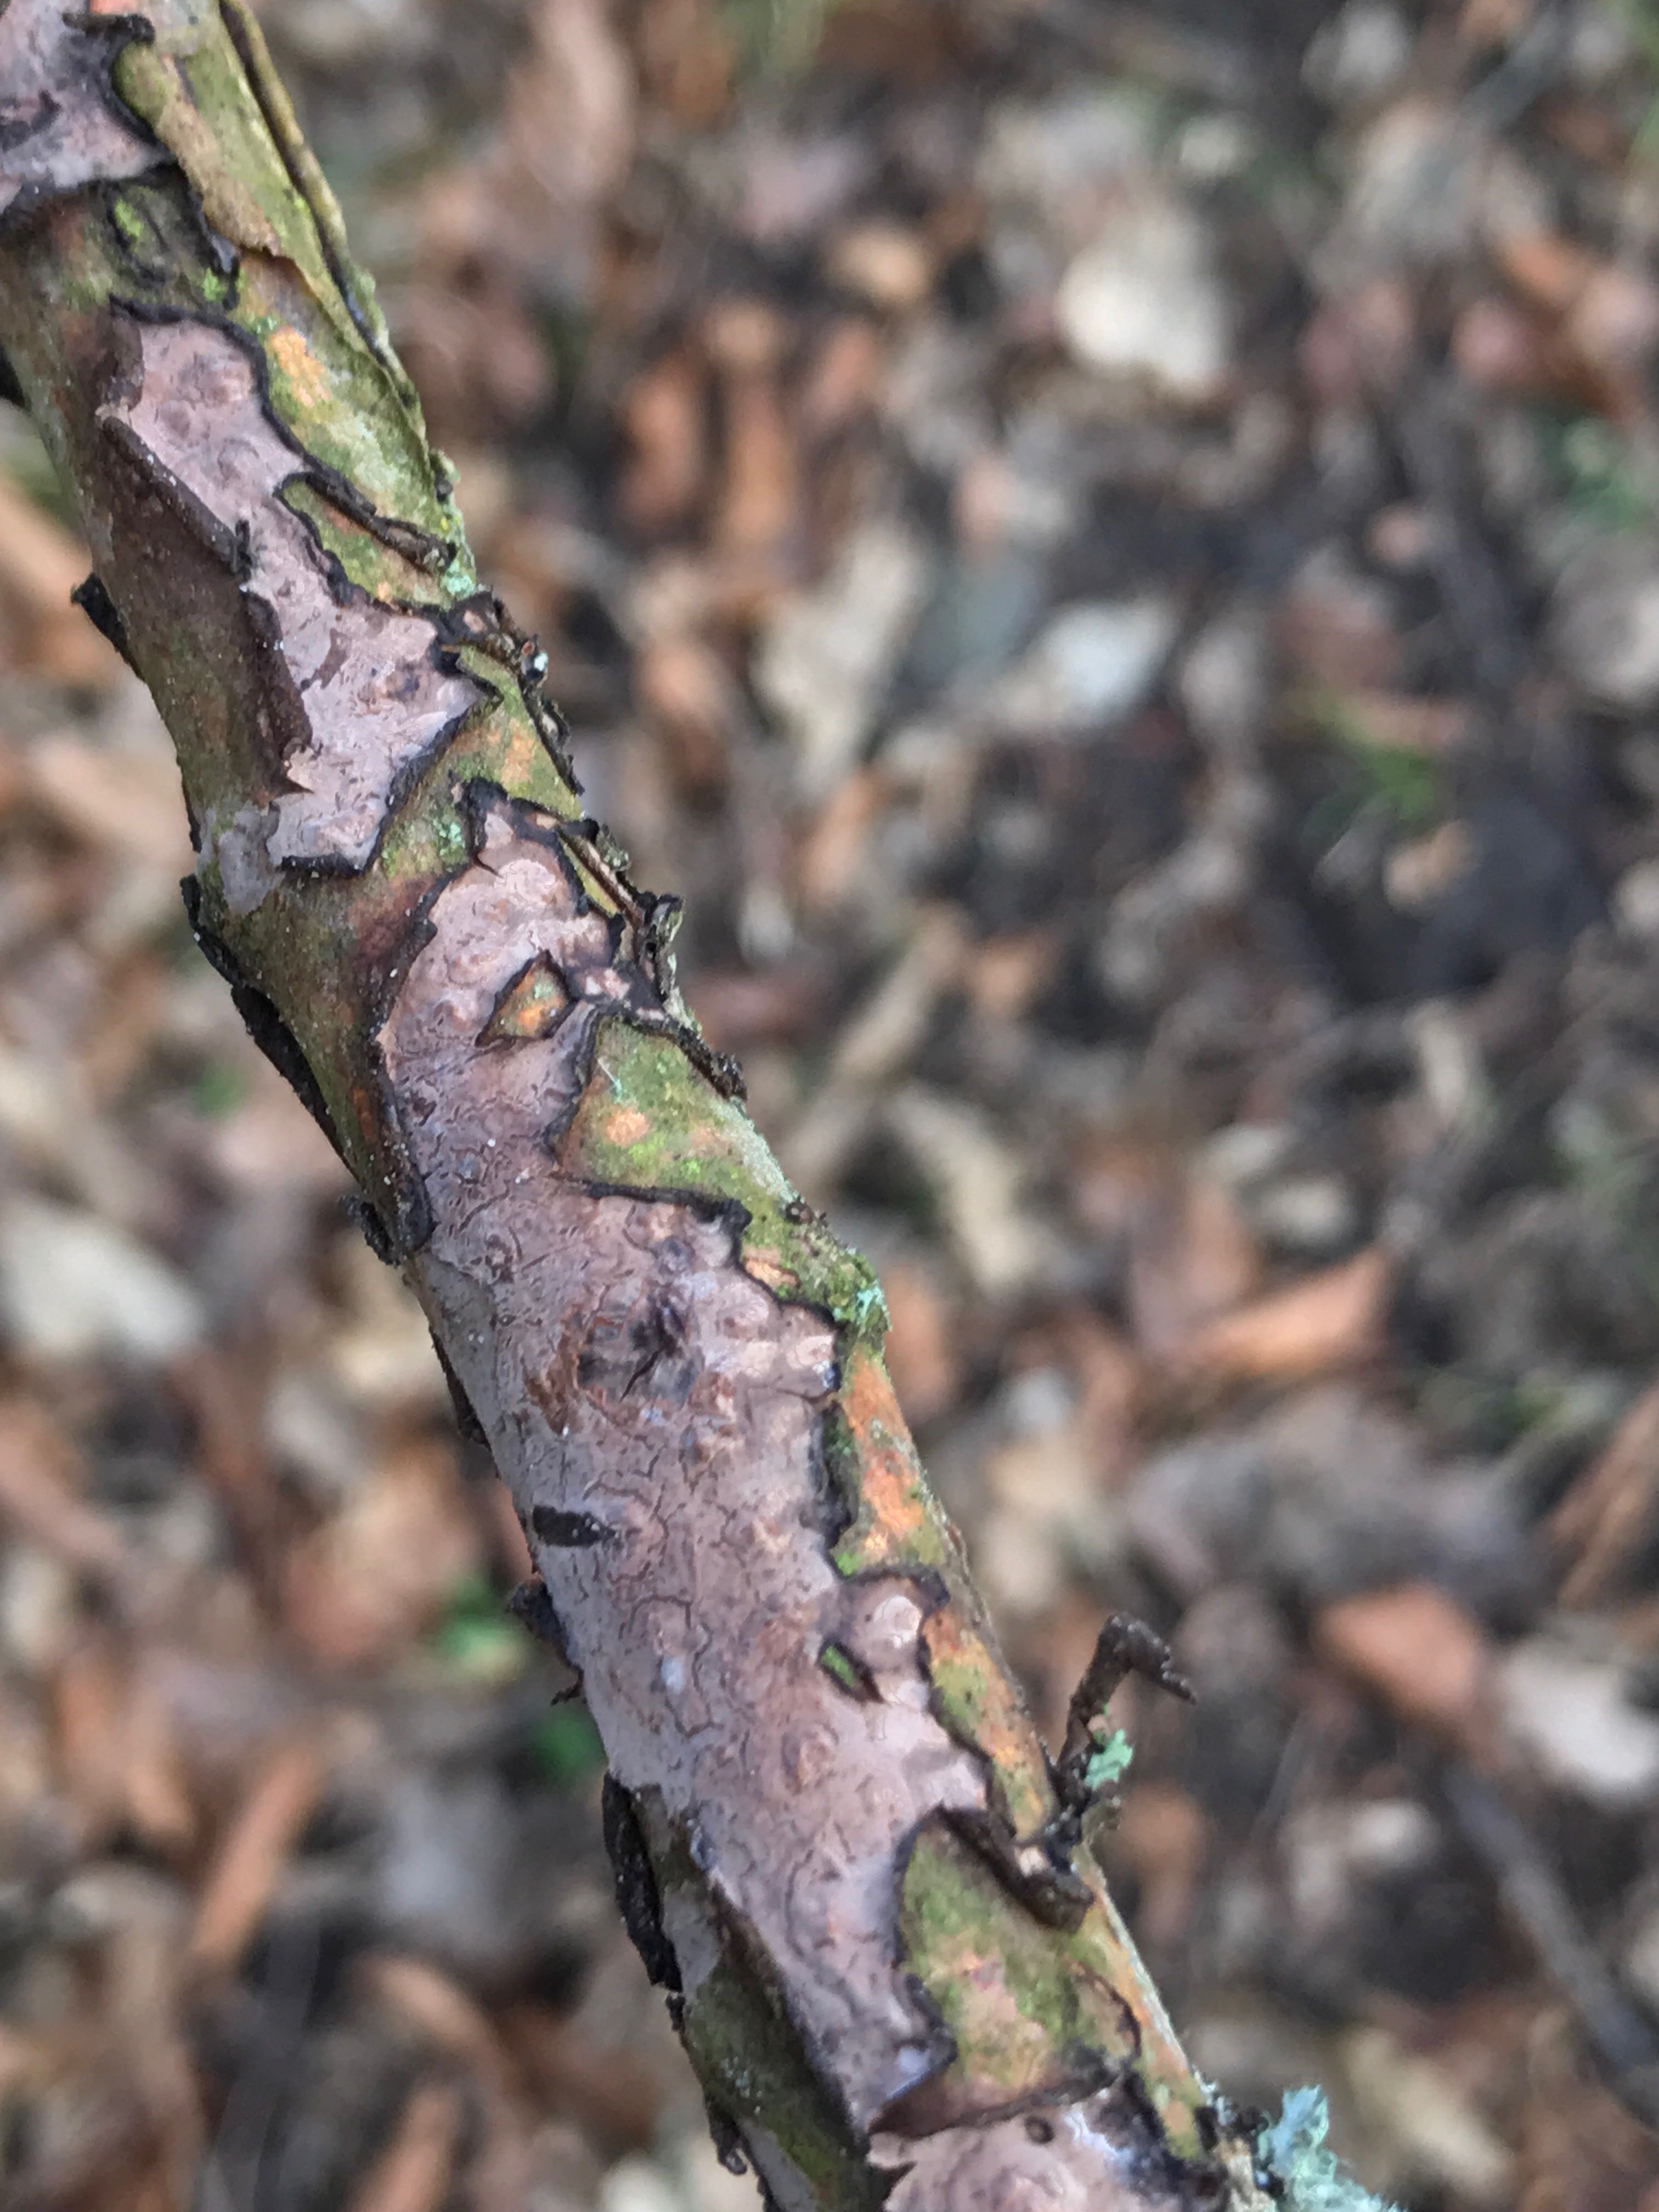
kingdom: Fungi
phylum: Basidiomycota
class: Agaricomycetes
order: Russulales
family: Peniophoraceae
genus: Peniophora
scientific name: Peniophora quercina
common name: ege-voksskind
